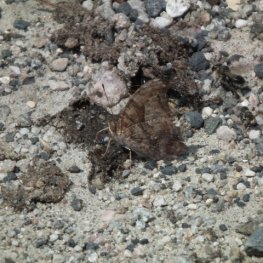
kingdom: Animalia
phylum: Arthropoda
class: Insecta
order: Lepidoptera
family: Nymphalidae
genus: Polygonia
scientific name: Polygonia interrogationis
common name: Question Mark
